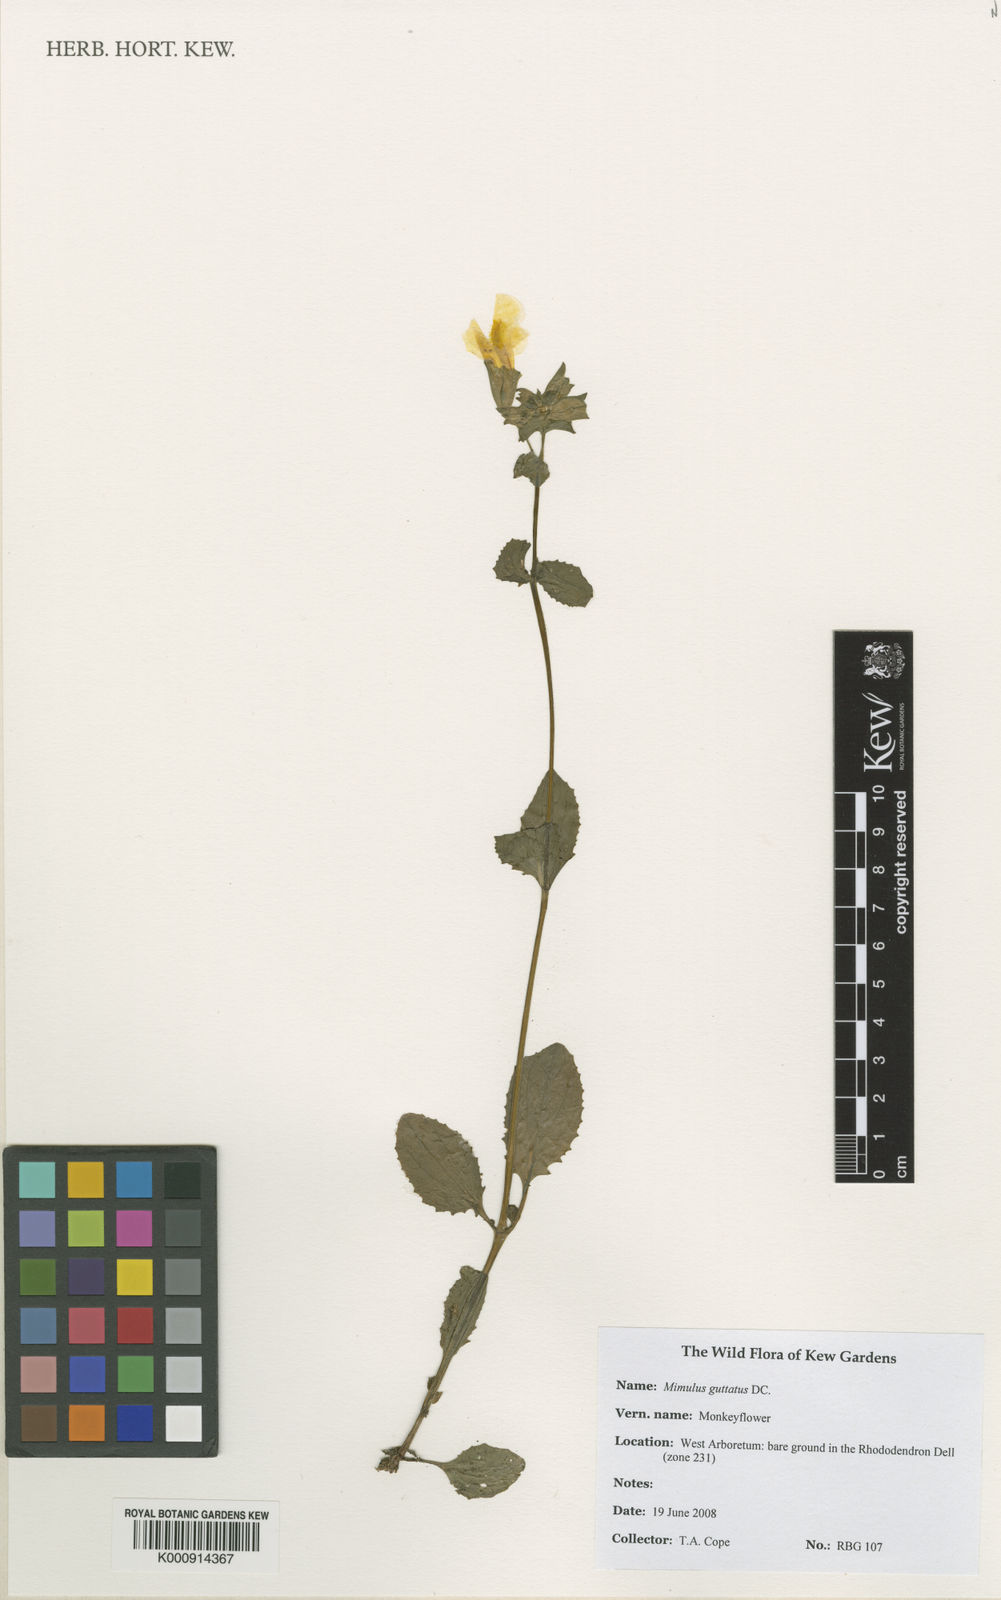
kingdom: Plantae
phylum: Tracheophyta
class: Magnoliopsida
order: Lamiales
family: Phrymaceae
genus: Erythranthe
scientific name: Erythranthe guttata
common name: Monkeyflower
